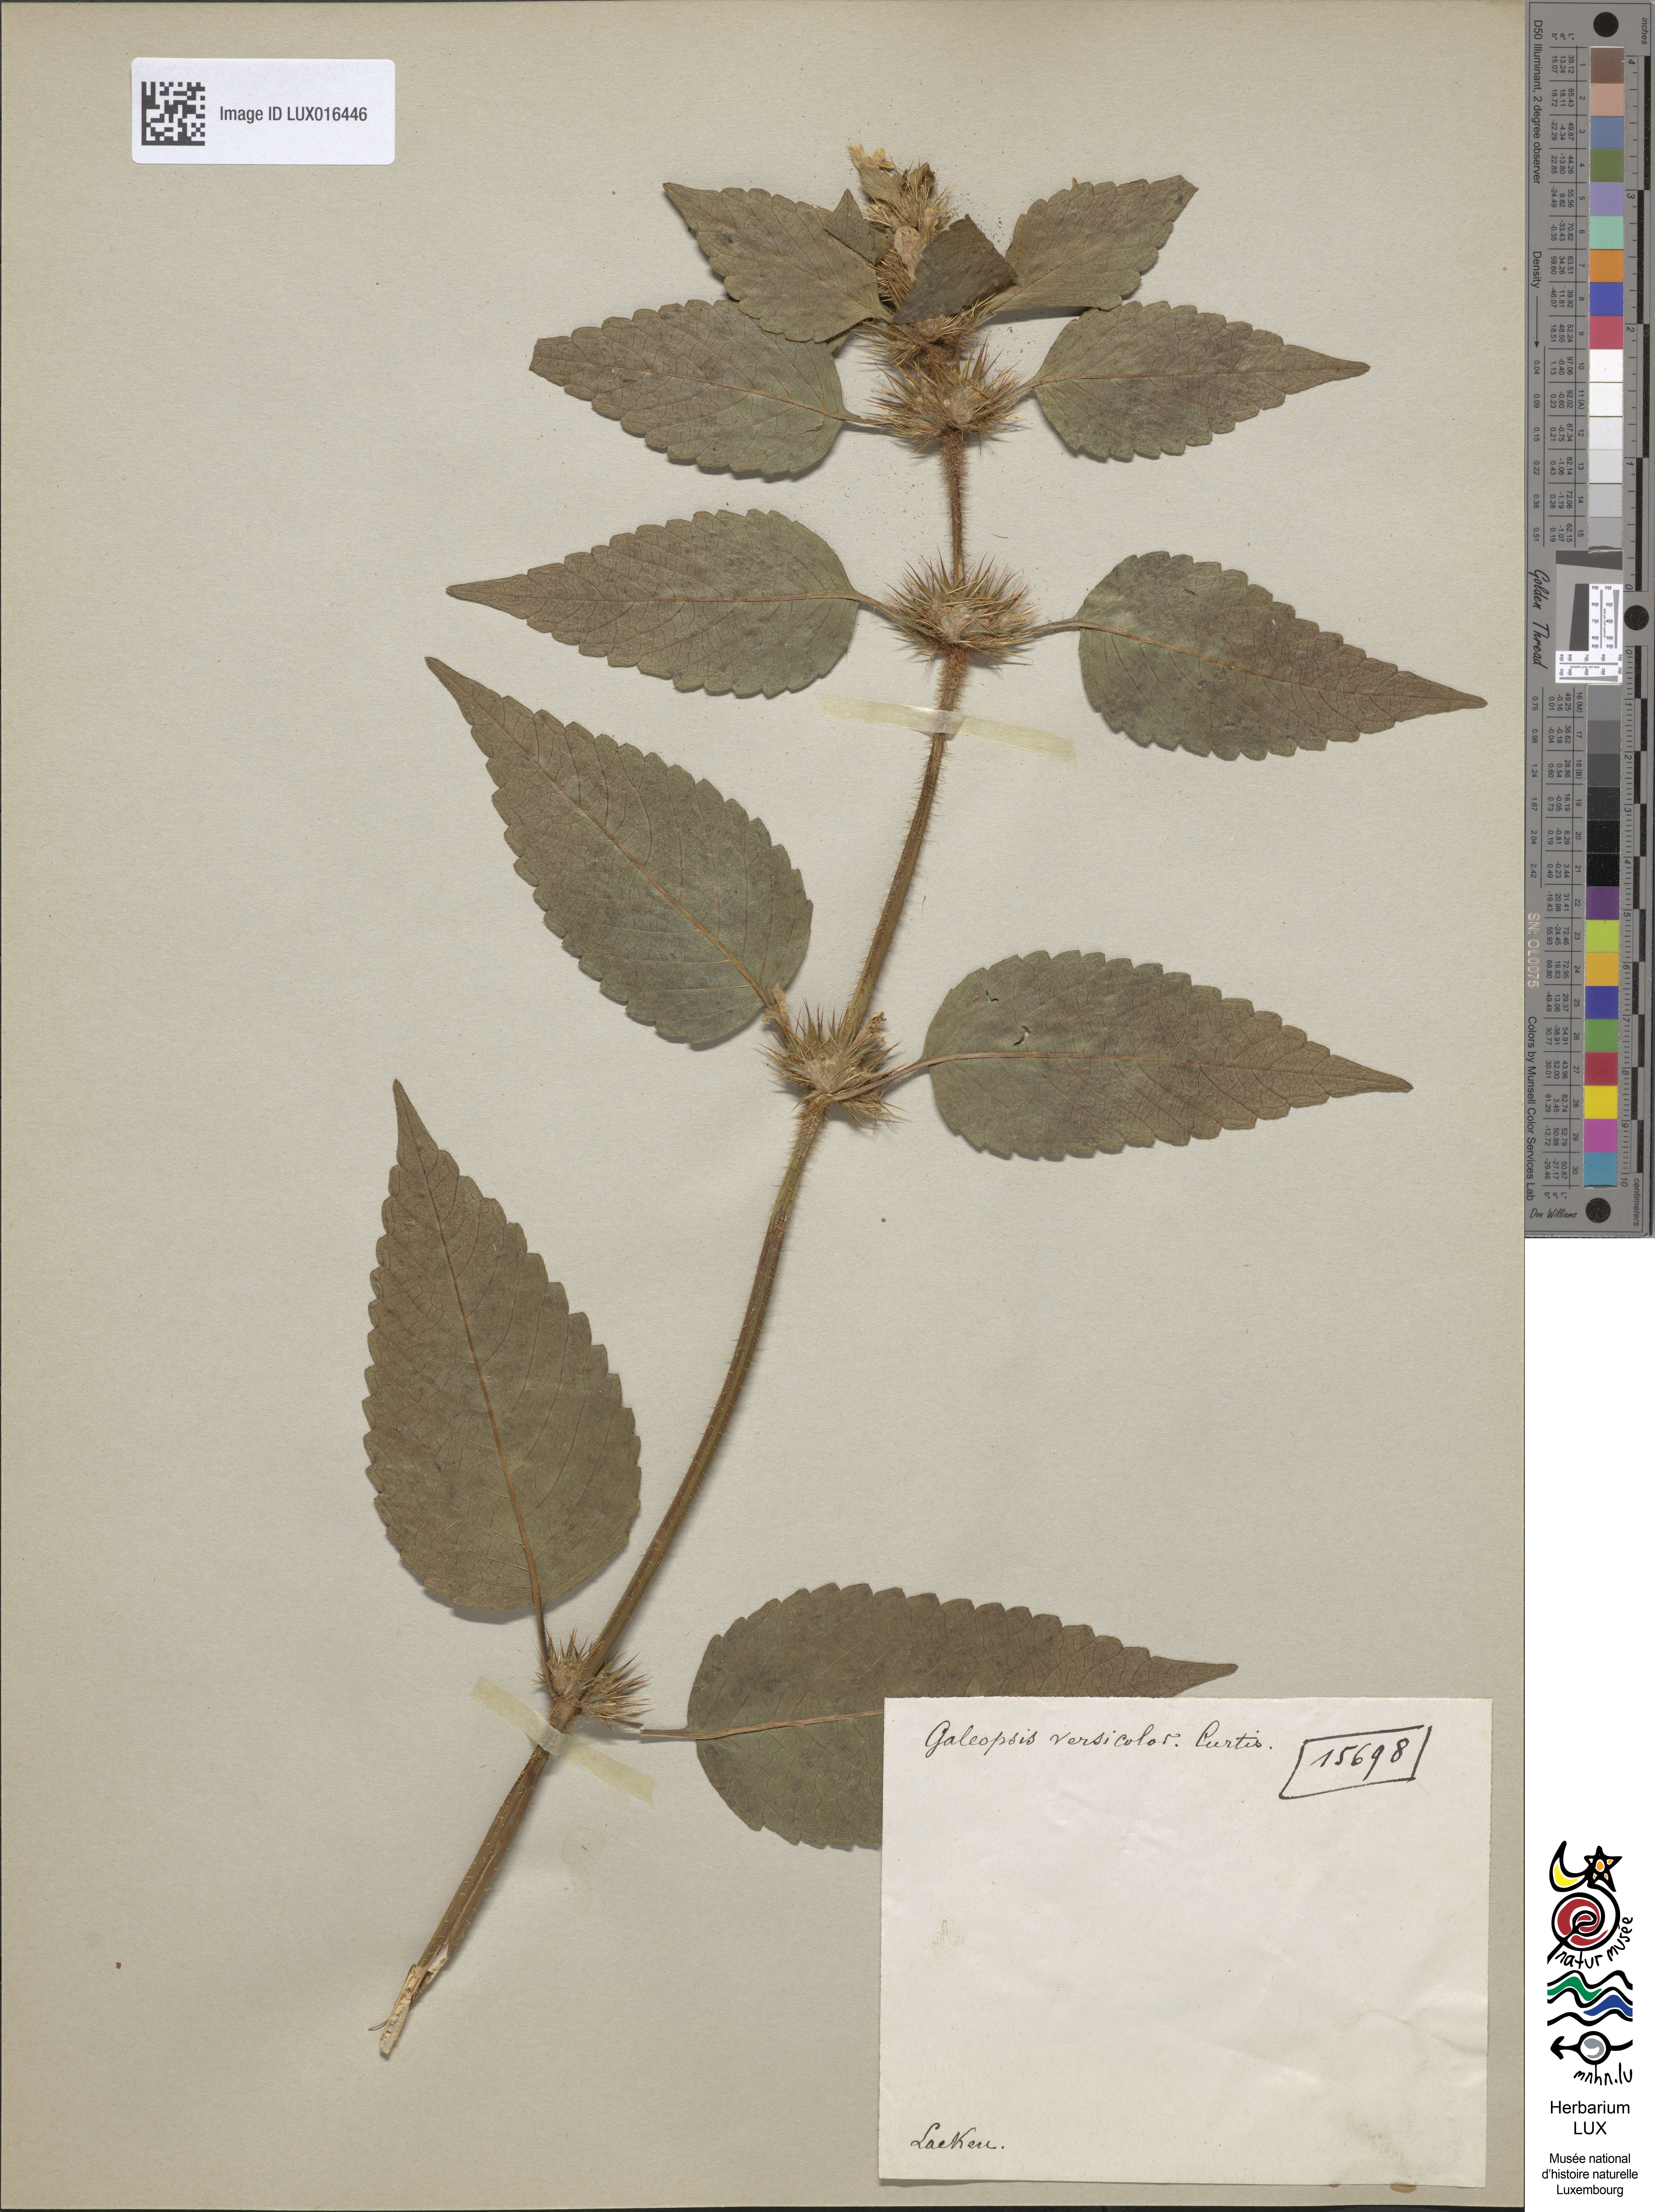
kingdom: Plantae
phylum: Tracheophyta
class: Magnoliopsida
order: Lamiales
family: Lamiaceae
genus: Galeopsis
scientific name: Galeopsis speciosa
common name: Large-flowered hemp-nettle
